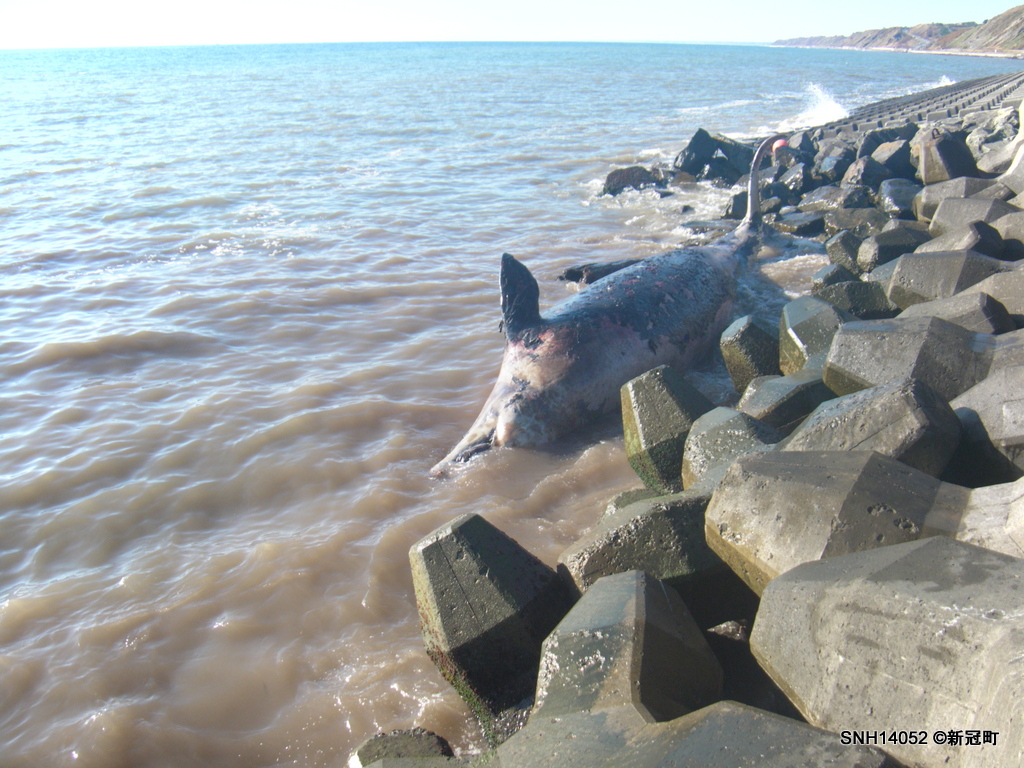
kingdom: Animalia
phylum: Chordata
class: Mammalia
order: Cetacea
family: Hyperoodontidae
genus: Berardius
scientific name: Berardius bairdii
